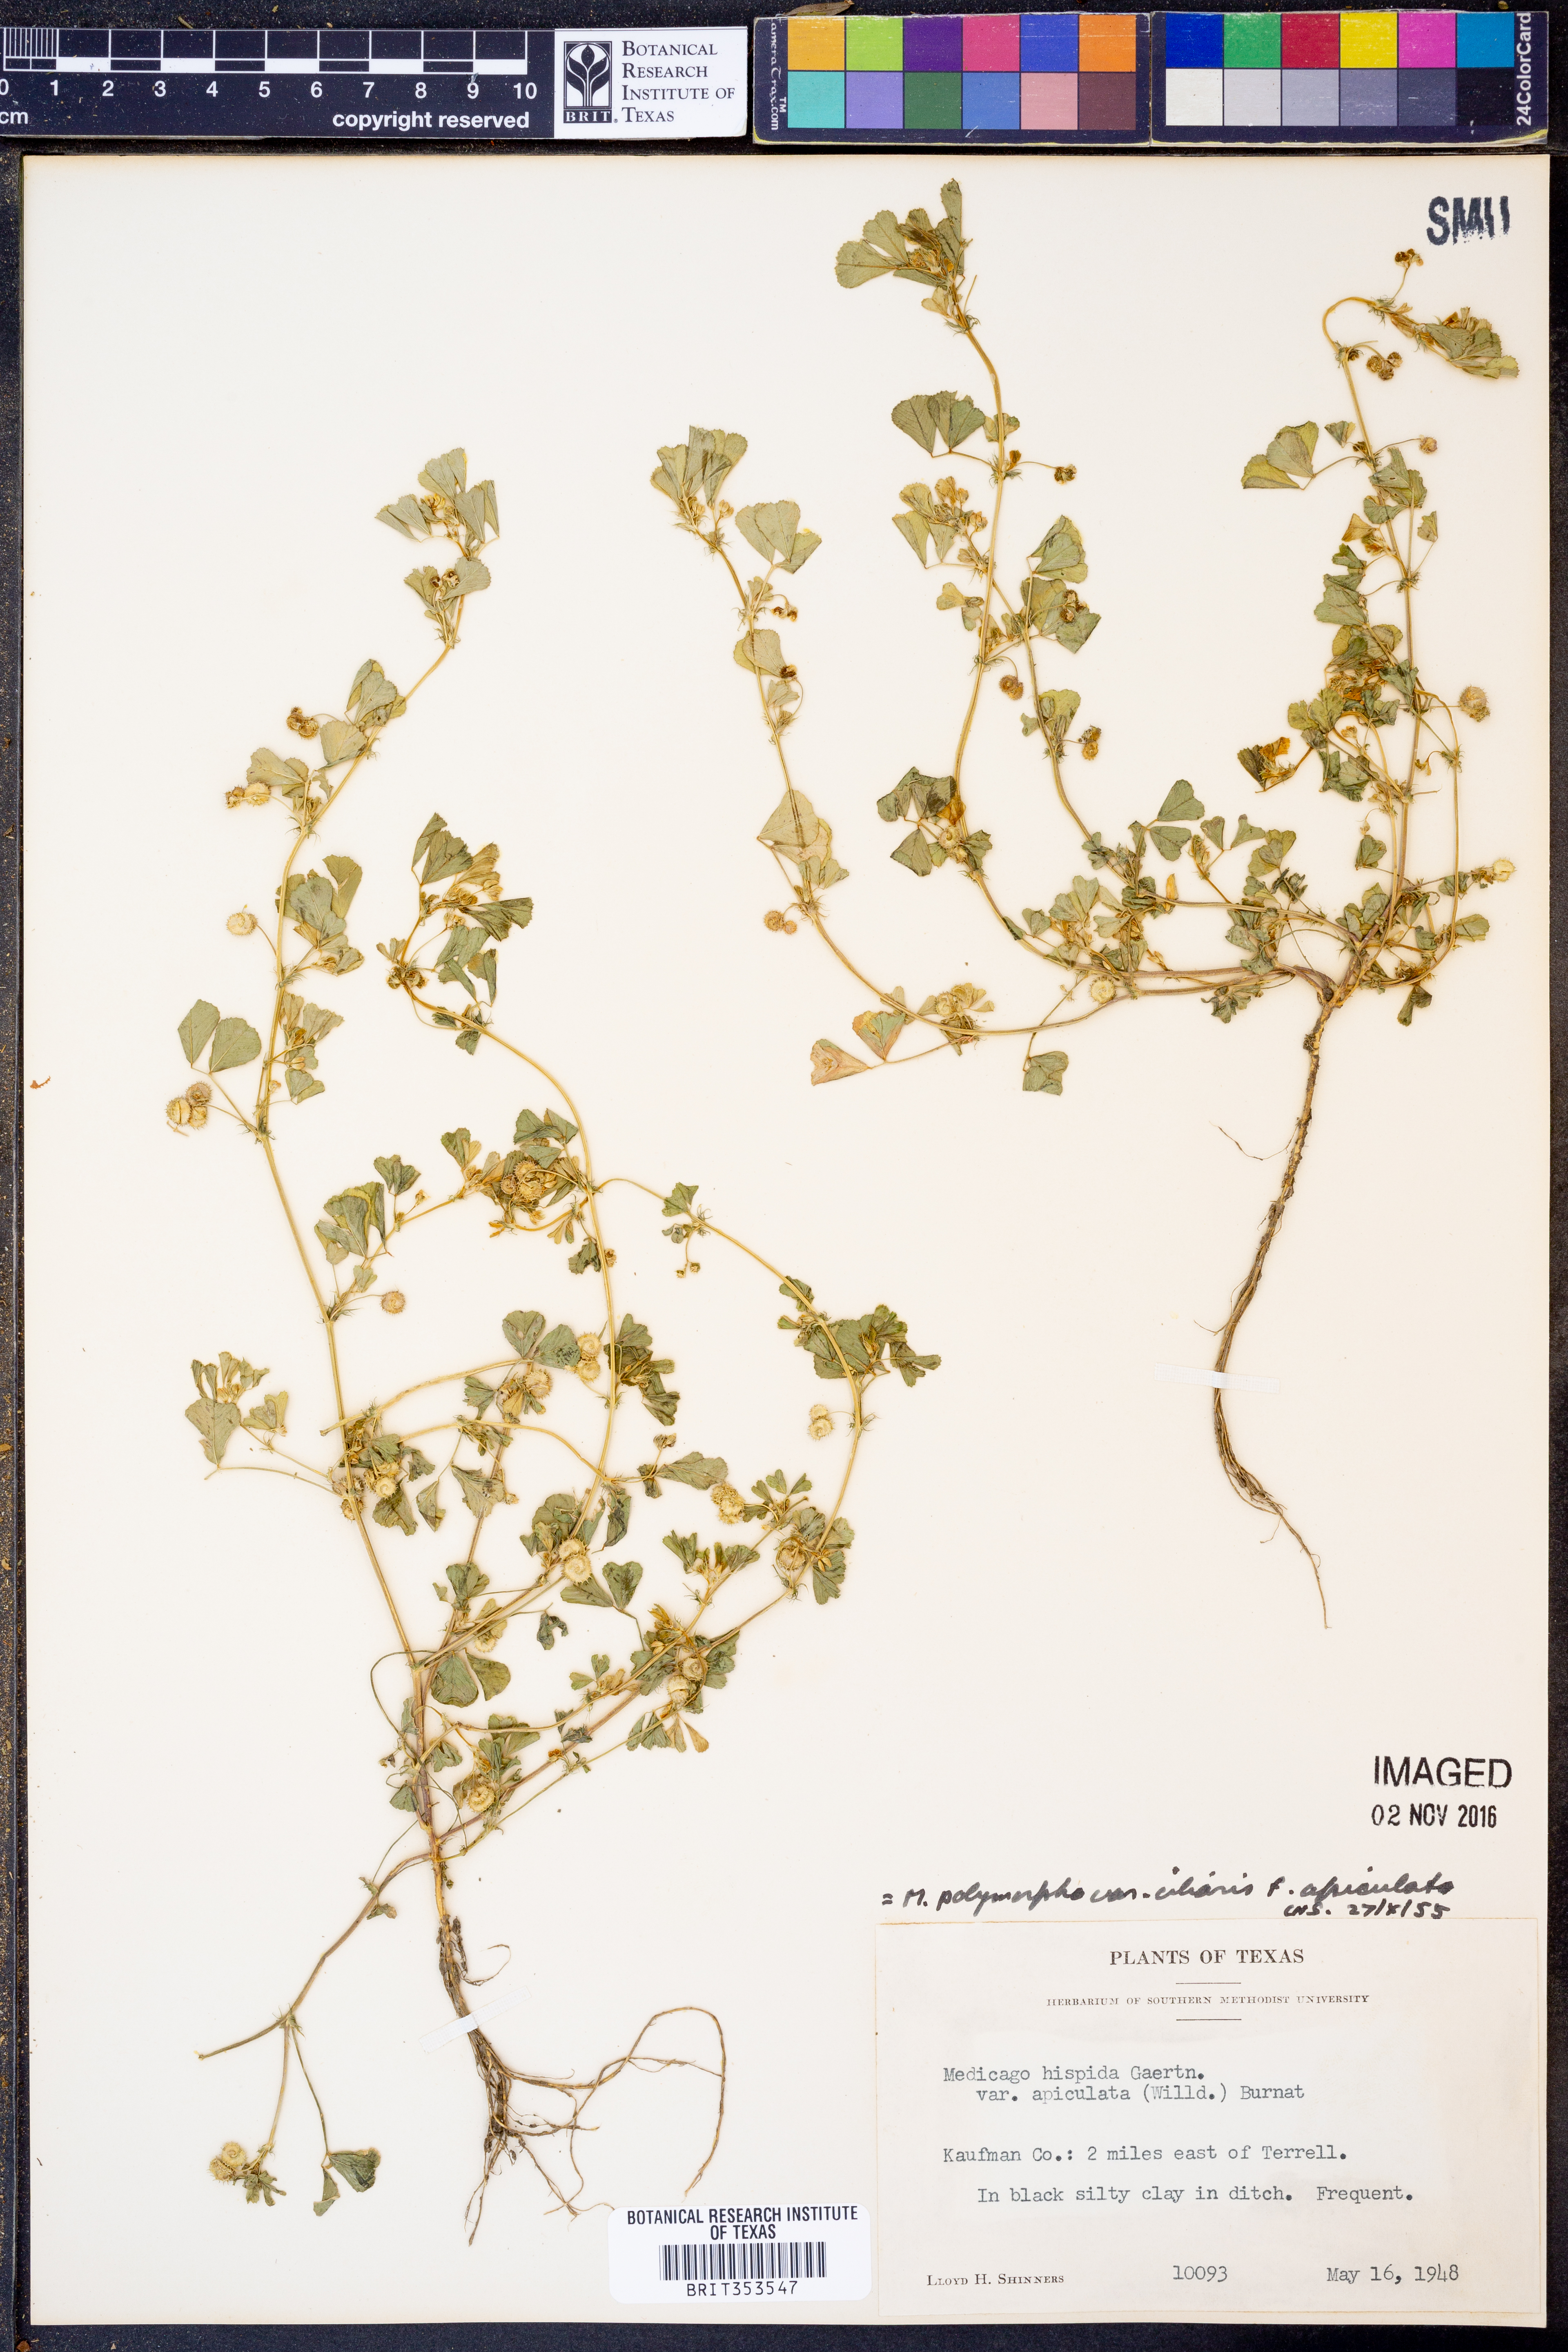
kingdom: Plantae
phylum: Tracheophyta
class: Magnoliopsida
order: Fabales
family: Fabaceae
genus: Medicago
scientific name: Medicago polymorpha
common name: Burclover
